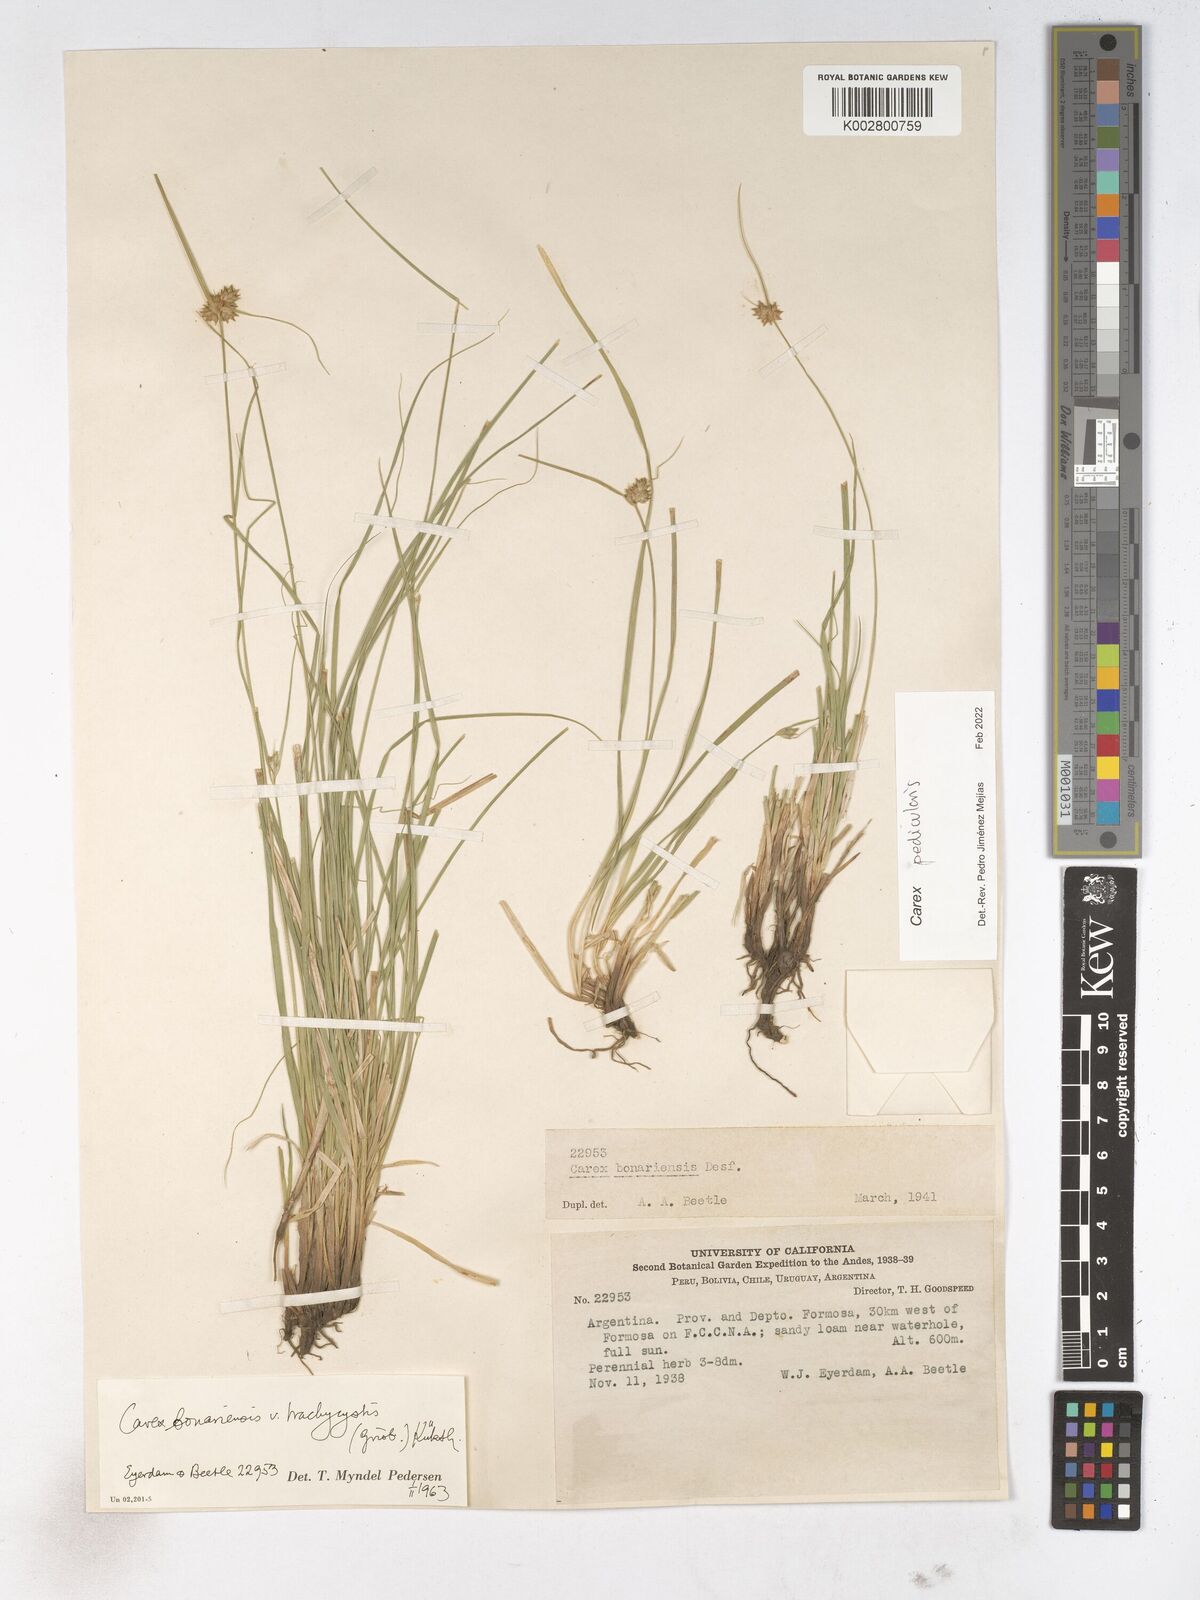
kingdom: Plantae
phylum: Tracheophyta
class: Liliopsida
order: Poales
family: Cyperaceae
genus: Carex
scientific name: Carex bonariensis
